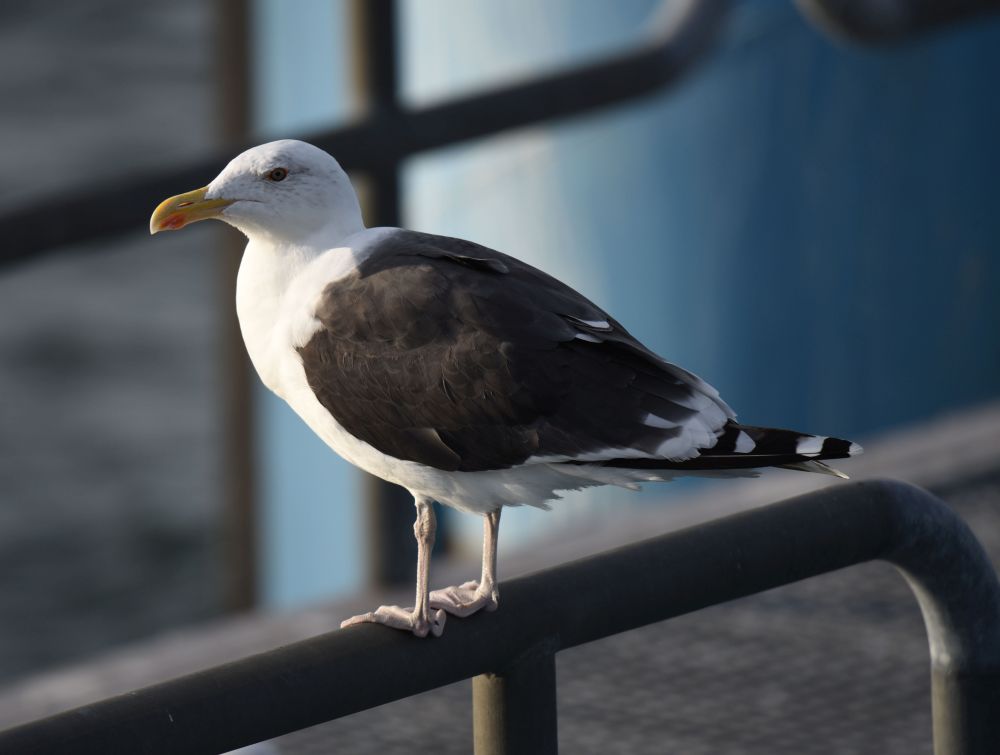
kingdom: Animalia
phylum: Chordata
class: Aves
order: Charadriiformes
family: Laridae
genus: Larus
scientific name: Larus marinus
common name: Great black-backed gull
